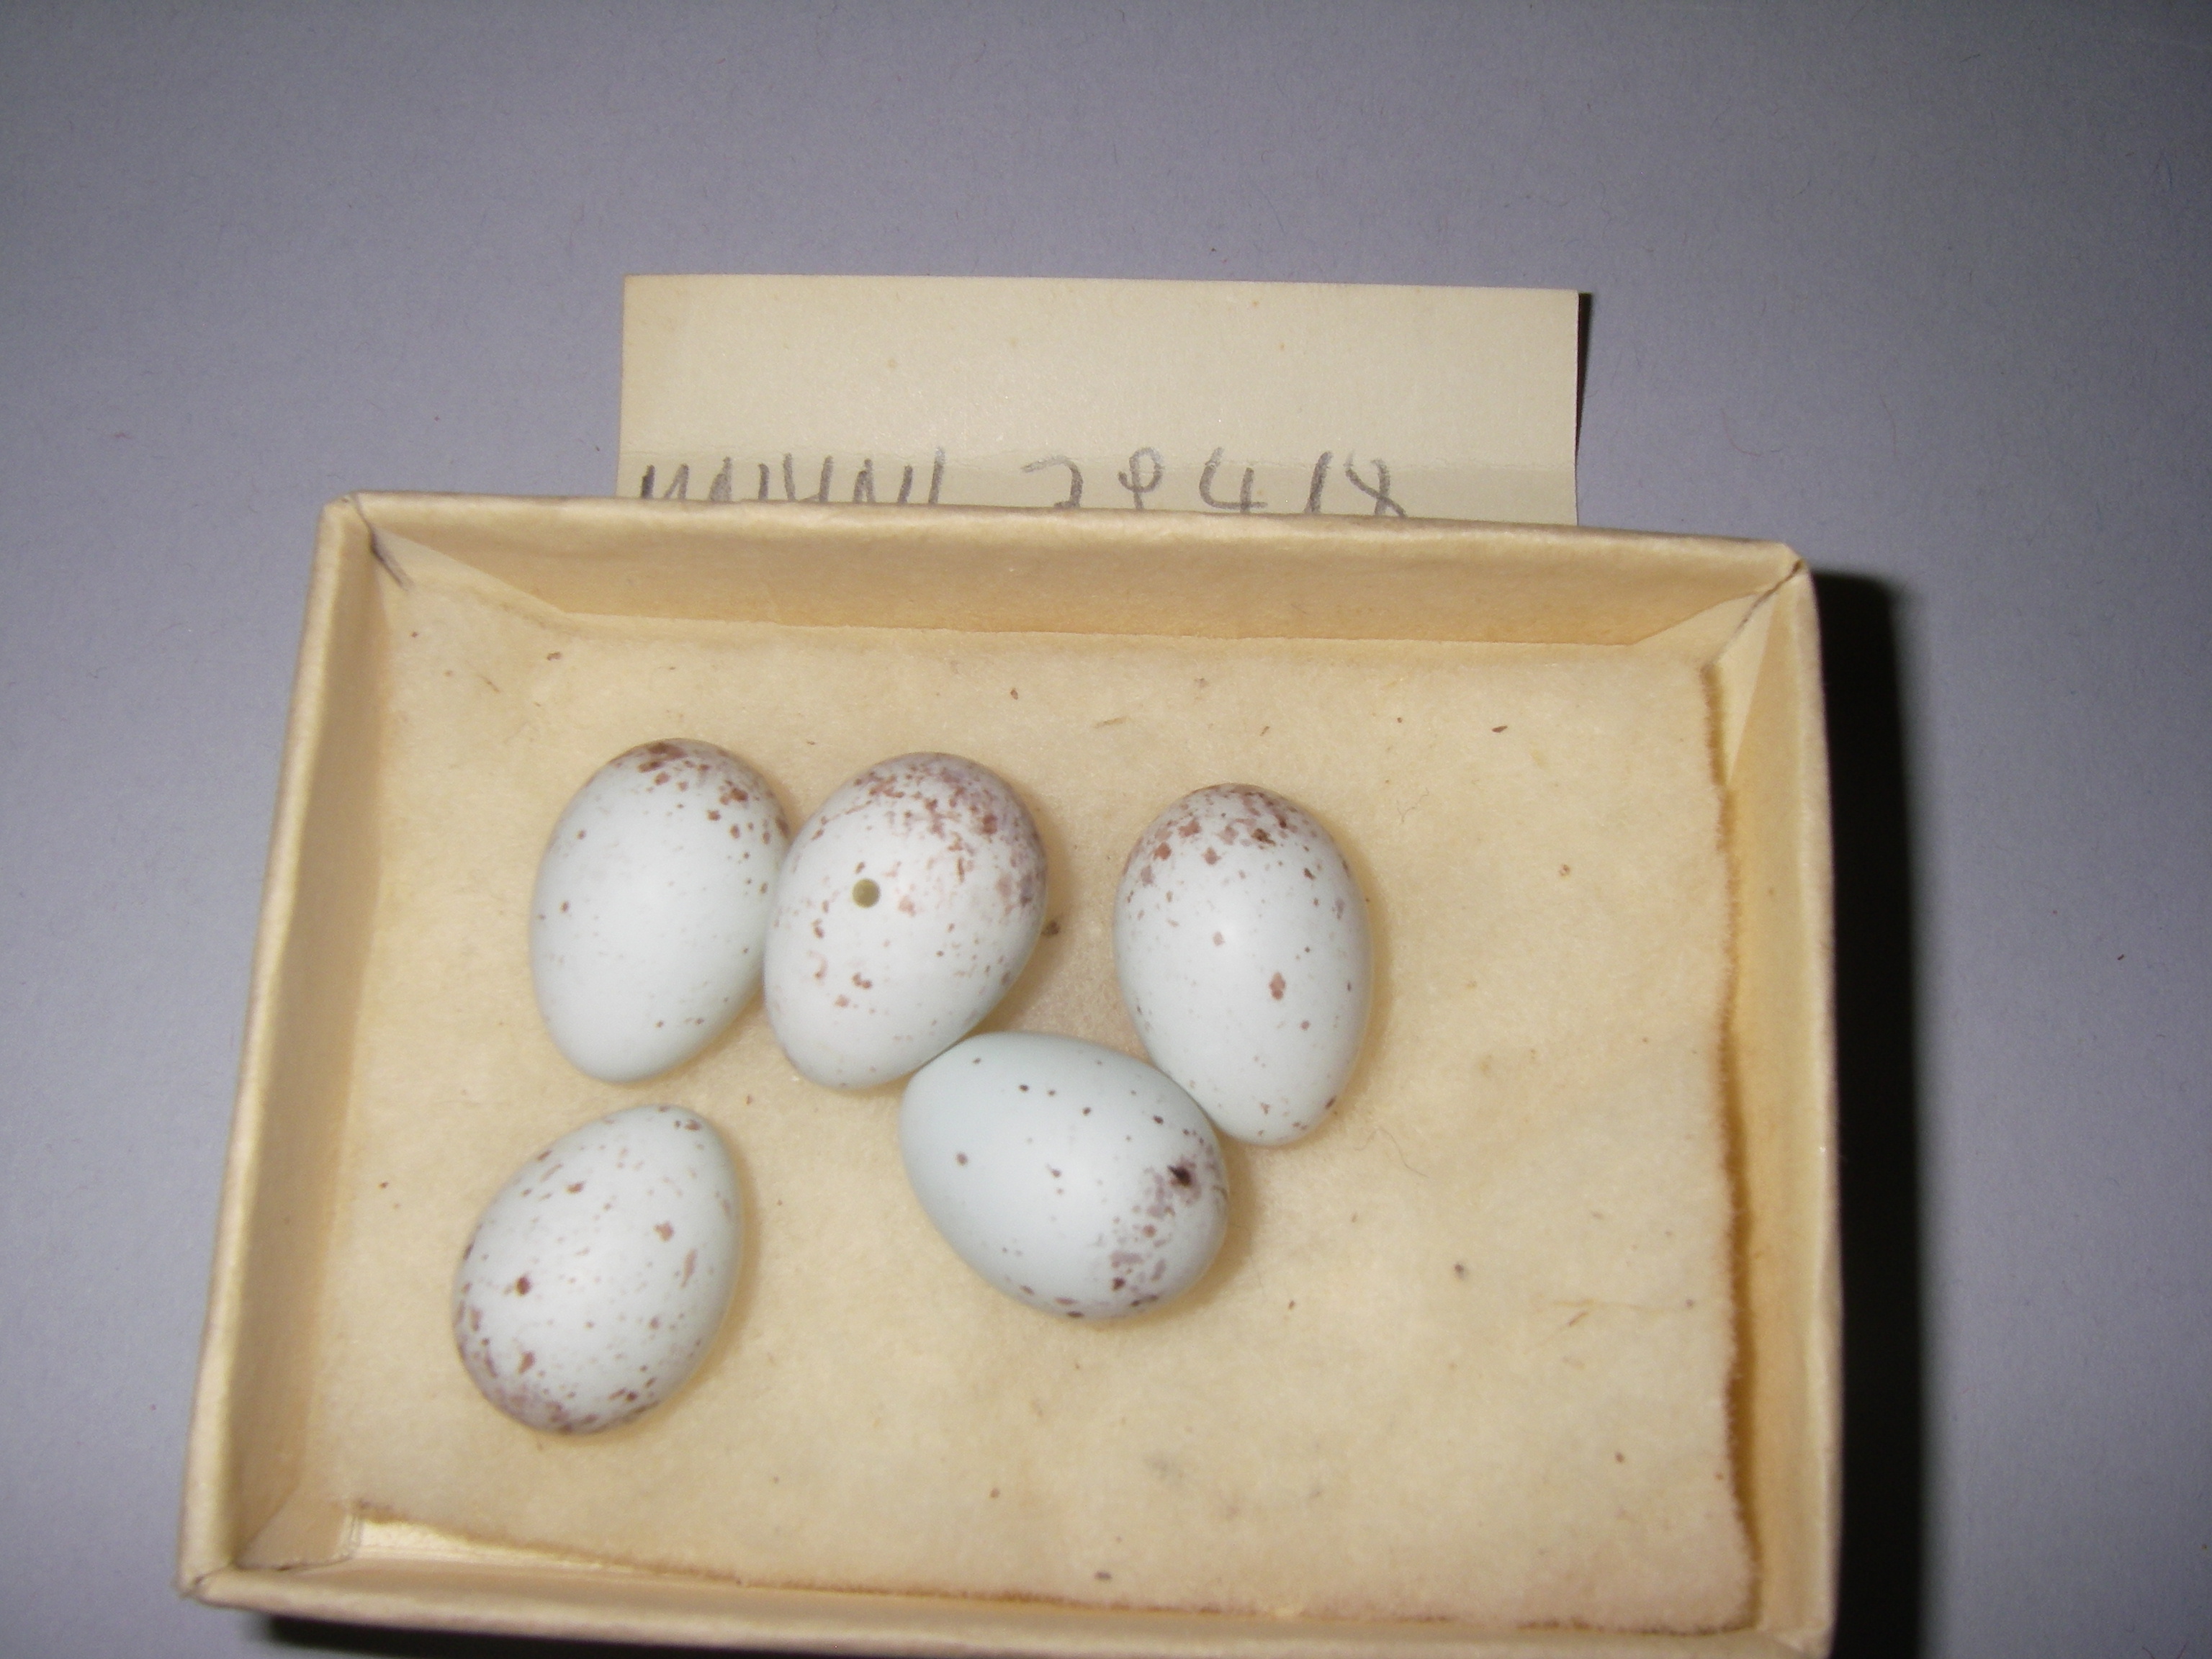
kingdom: Animalia
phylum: Chordata
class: Aves
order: Passeriformes
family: Fringillidae
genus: Linaria
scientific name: Linaria cannabina
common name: Common linnet
